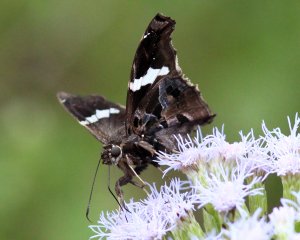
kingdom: Animalia
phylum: Arthropoda
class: Insecta
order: Lepidoptera
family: Hesperiidae
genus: Spathilepia
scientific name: Spathilepia clonius
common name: Falcate Skipper
